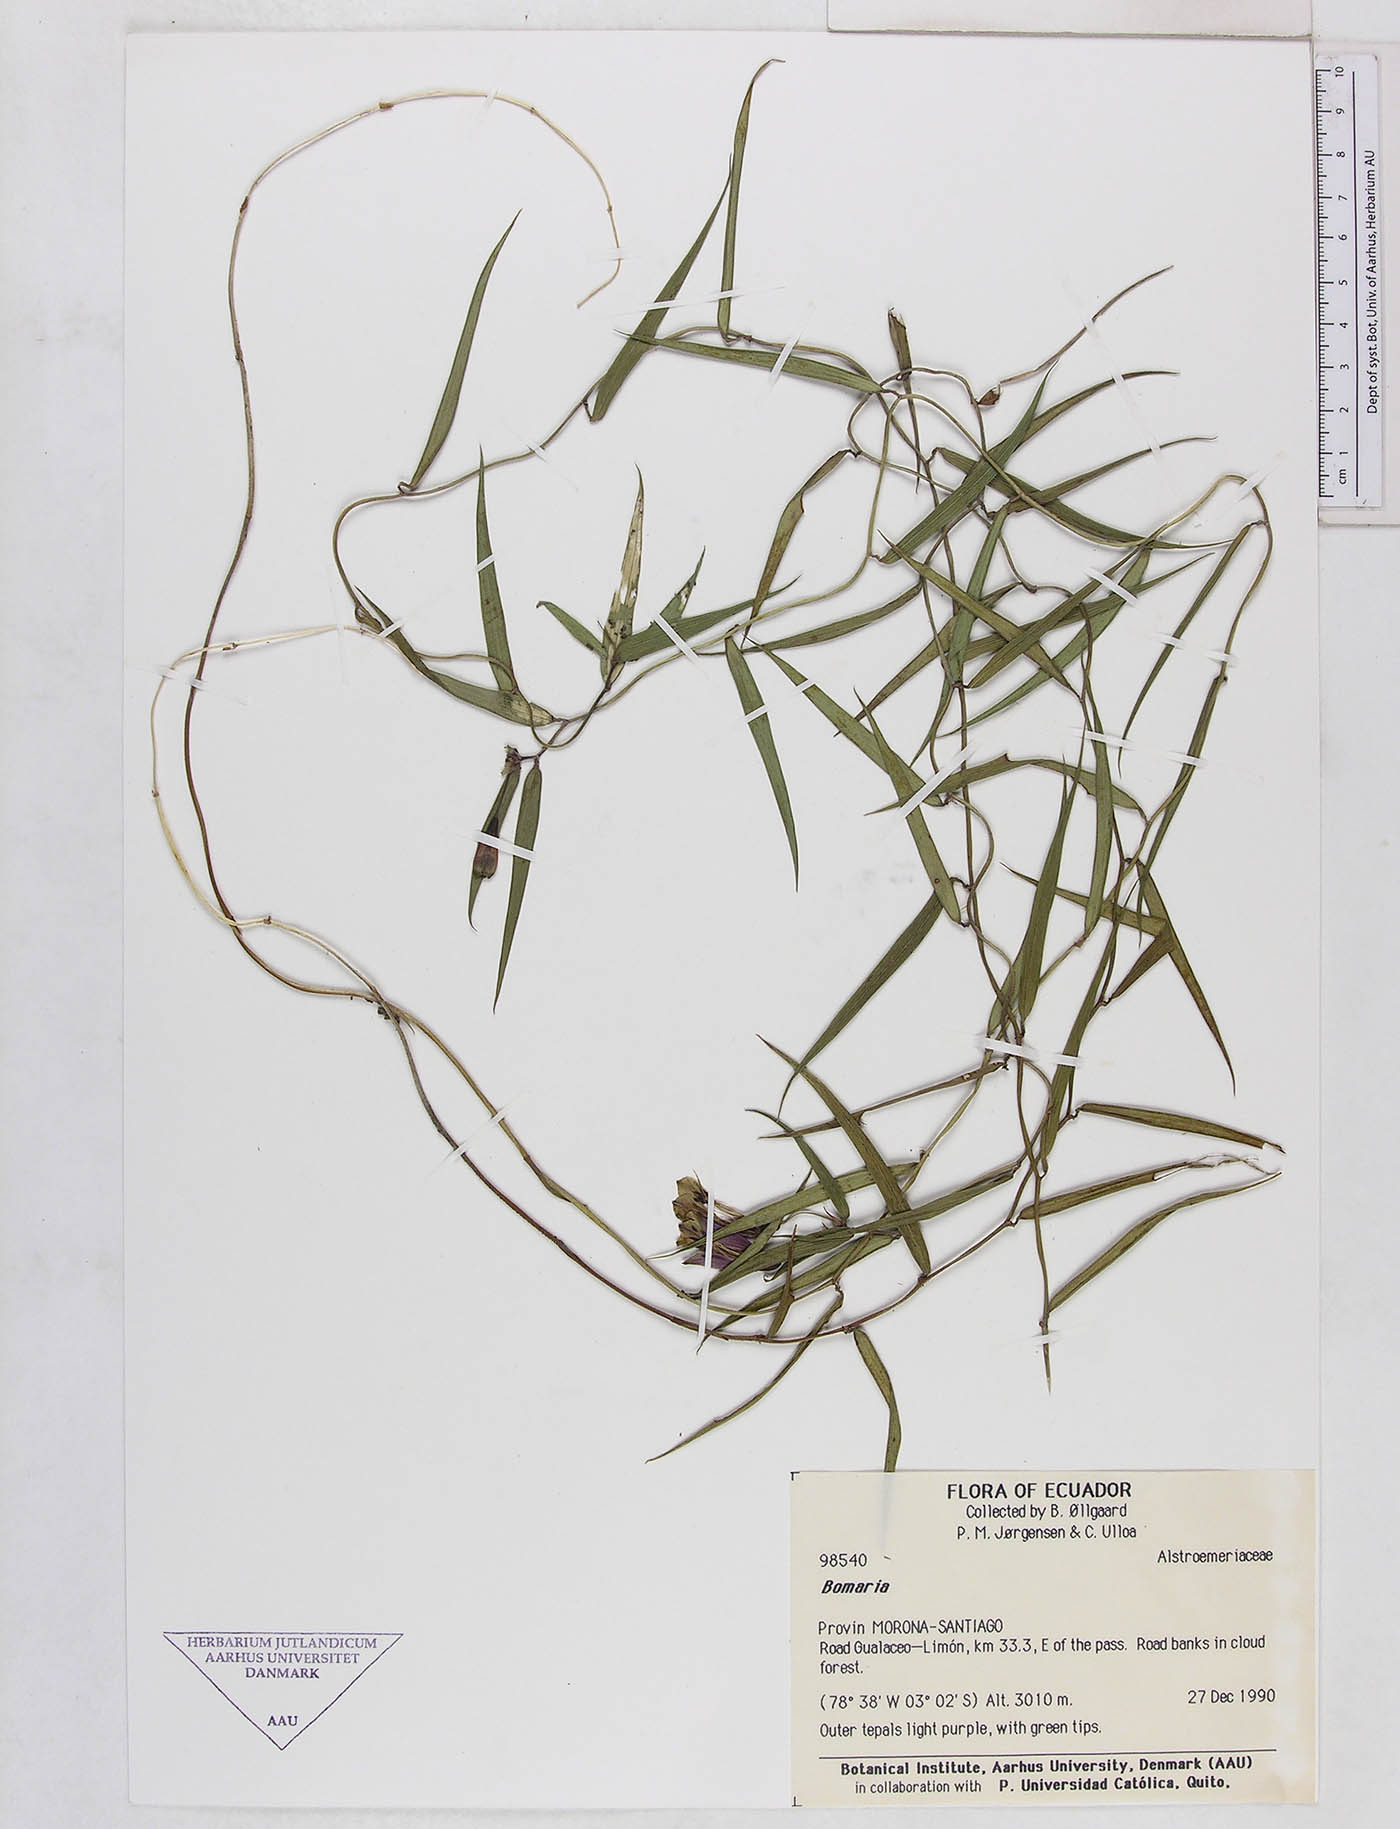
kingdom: Plantae
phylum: Tracheophyta
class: Liliopsida
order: Liliales
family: Alstroemeriaceae
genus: Bomarea
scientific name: Bomarea
